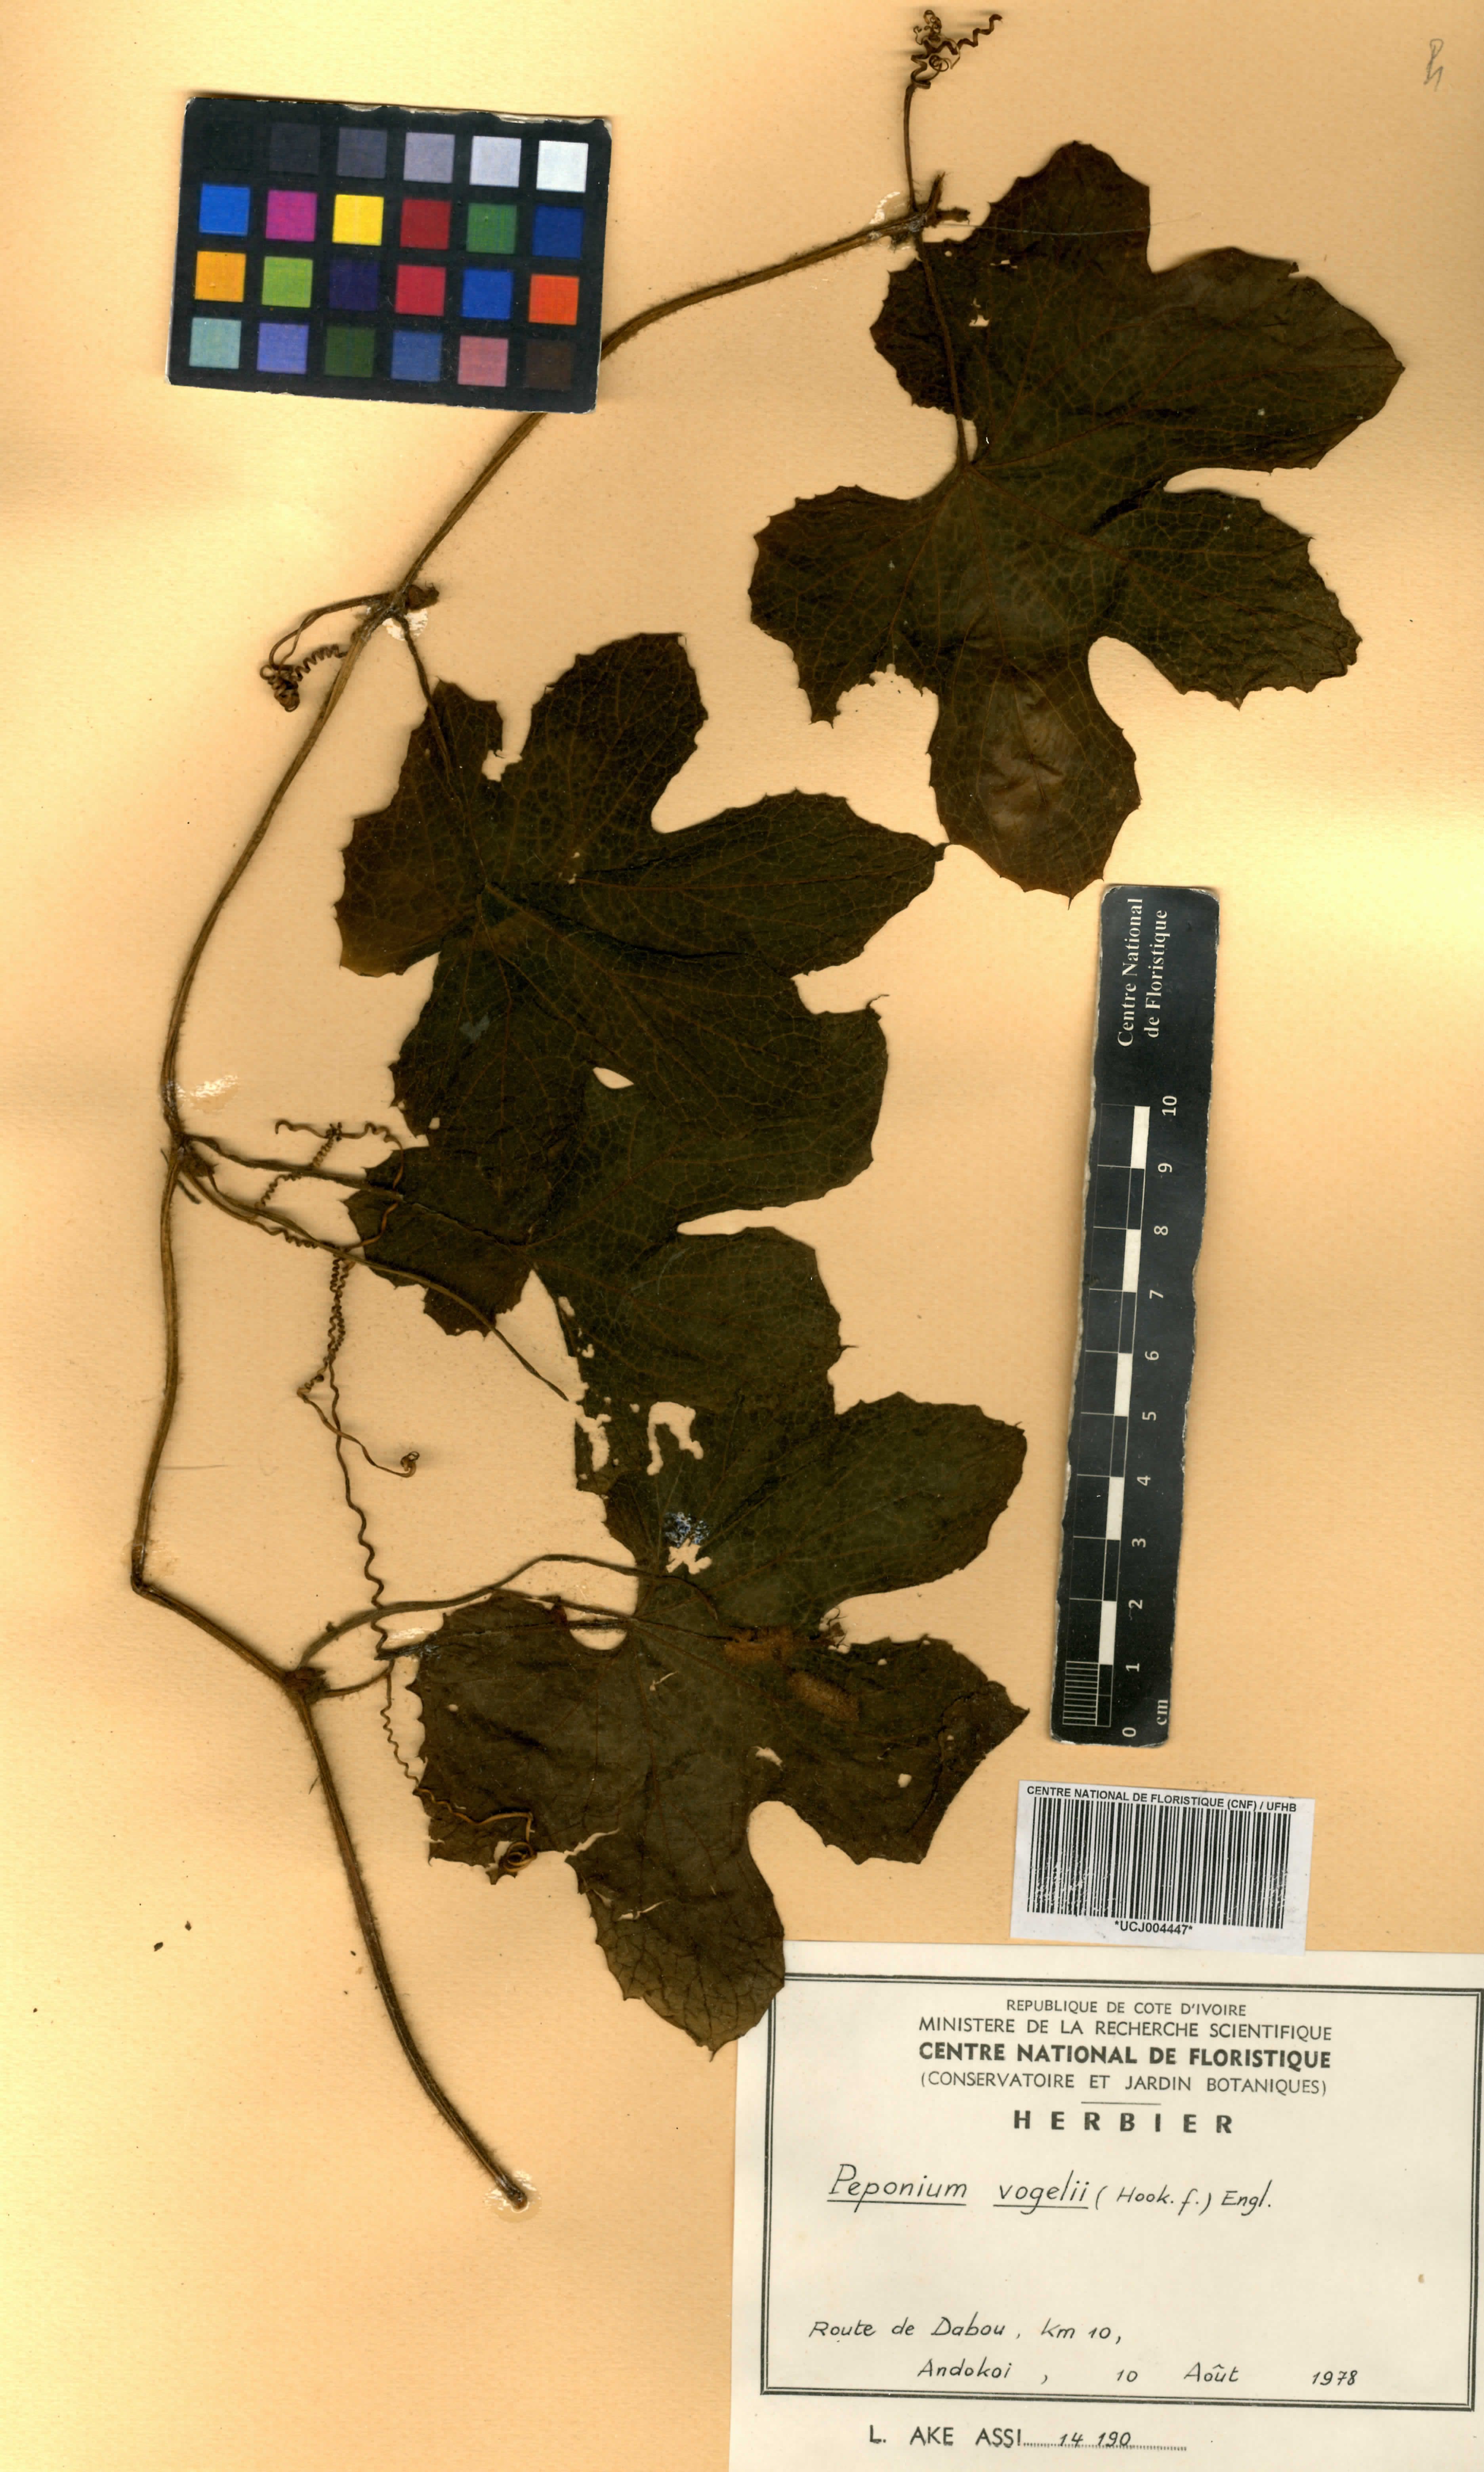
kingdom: Plantae
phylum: Tracheophyta
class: Magnoliopsida
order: Cucurbitales
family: Cucurbitaceae
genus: Peponium
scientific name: Peponium vogelii
